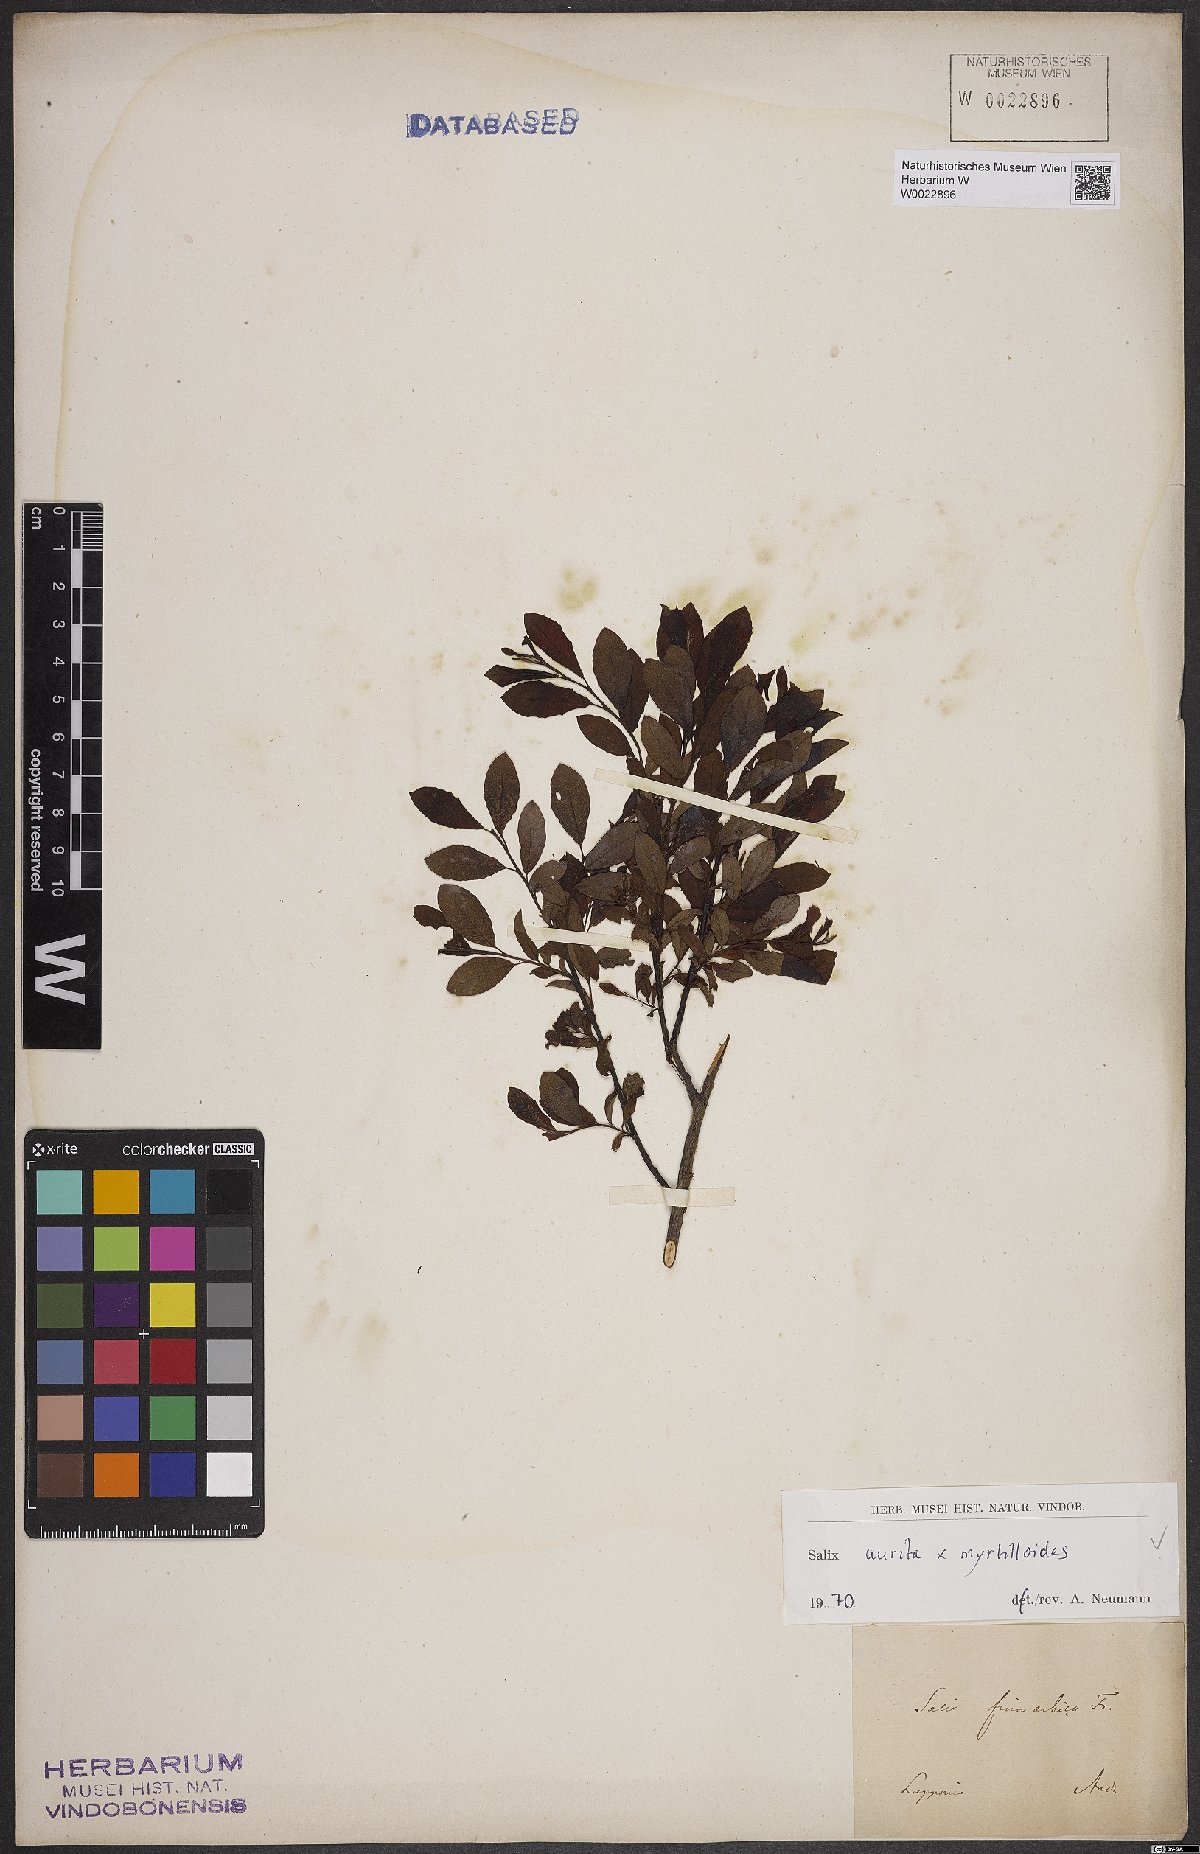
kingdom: Plantae
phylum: Tracheophyta
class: Magnoliopsida
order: Malpighiales
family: Salicaceae
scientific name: Salicaceae
